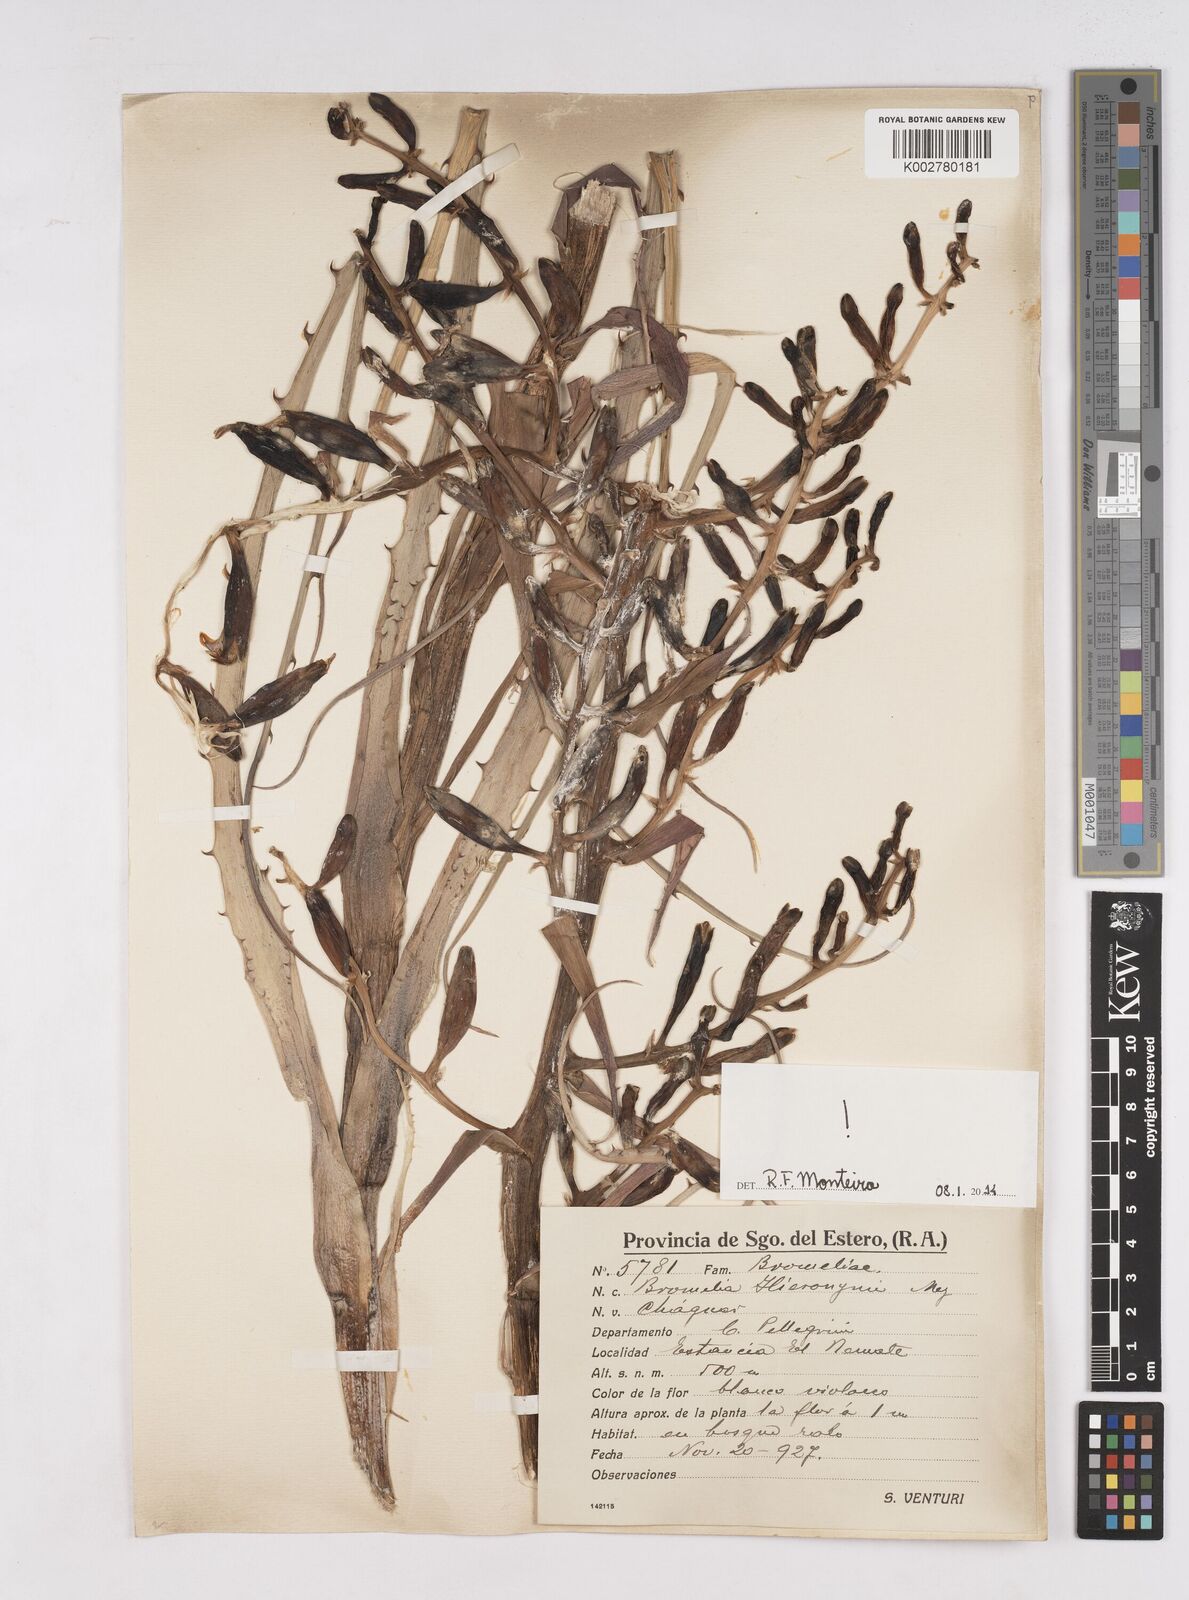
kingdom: Plantae
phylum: Tracheophyta
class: Liliopsida
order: Poales
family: Bromeliaceae
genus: Bromelia
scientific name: Bromelia hieronymi
